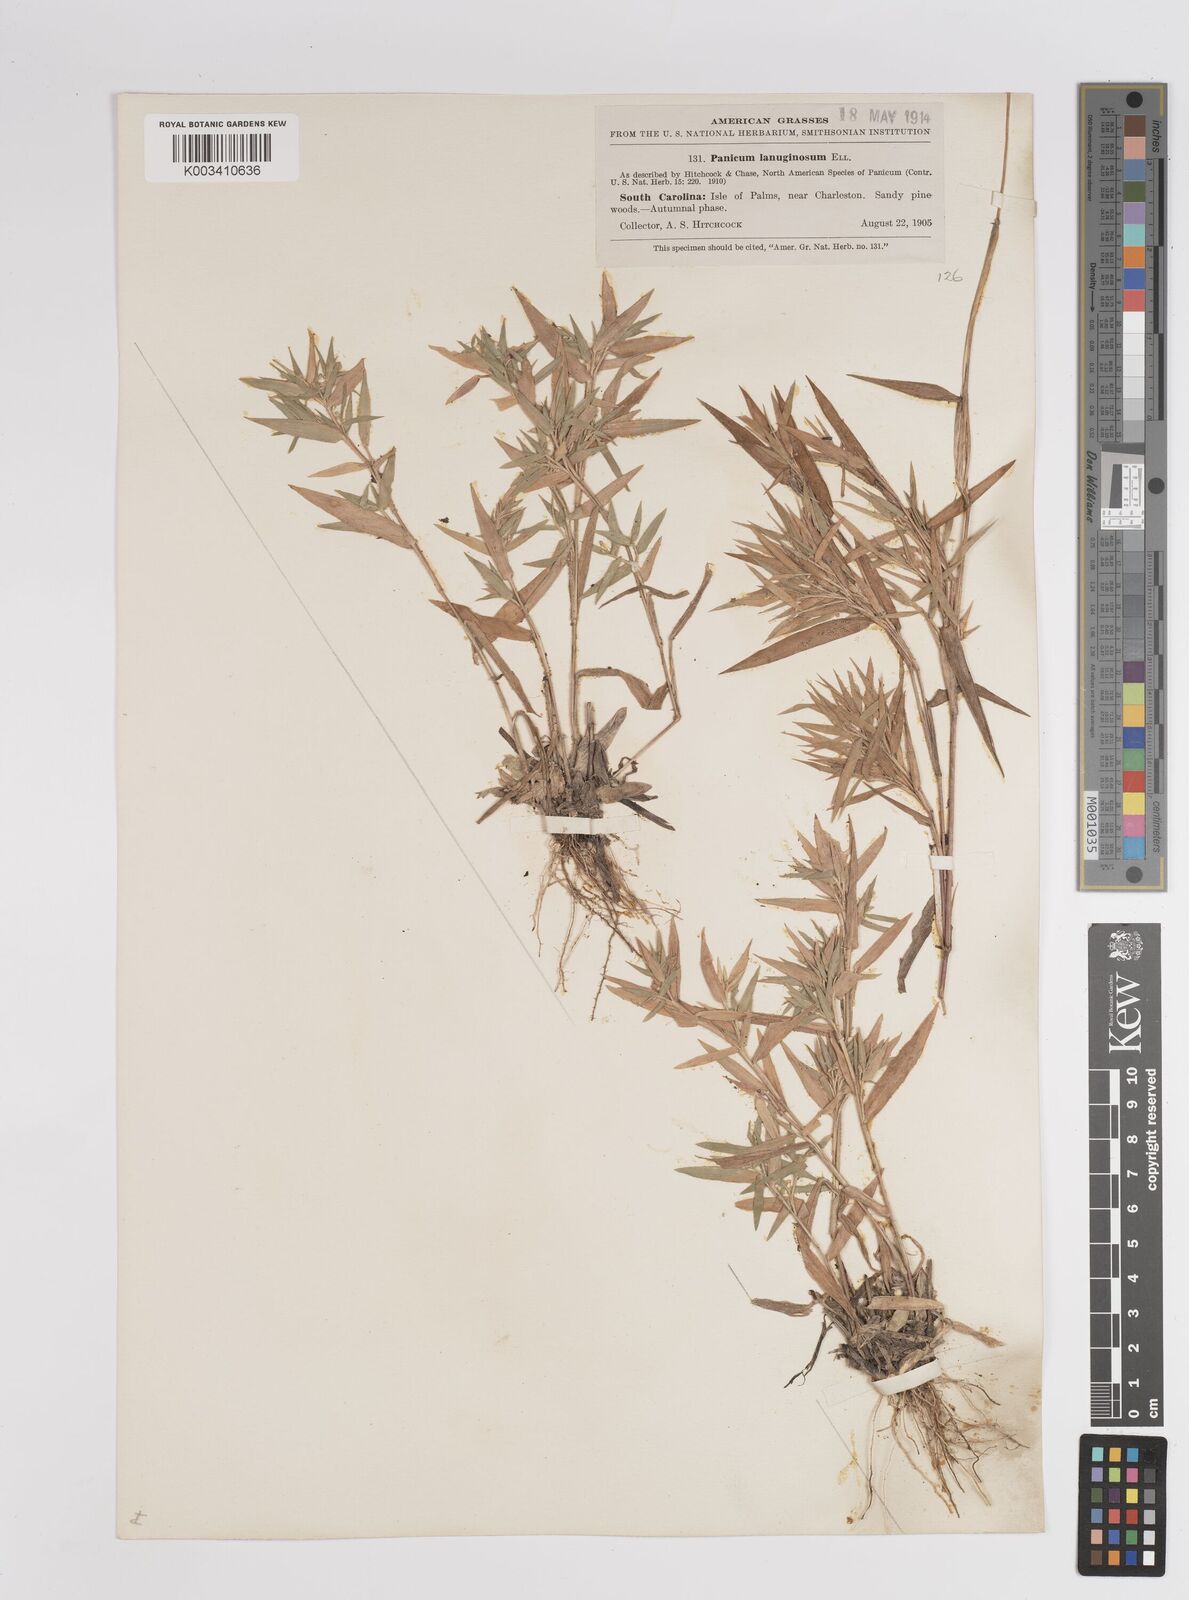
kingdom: Plantae
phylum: Tracheophyta
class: Liliopsida
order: Poales
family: Poaceae
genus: Dichanthelium
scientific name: Dichanthelium lanuginosum
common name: Woolly panicgrass
